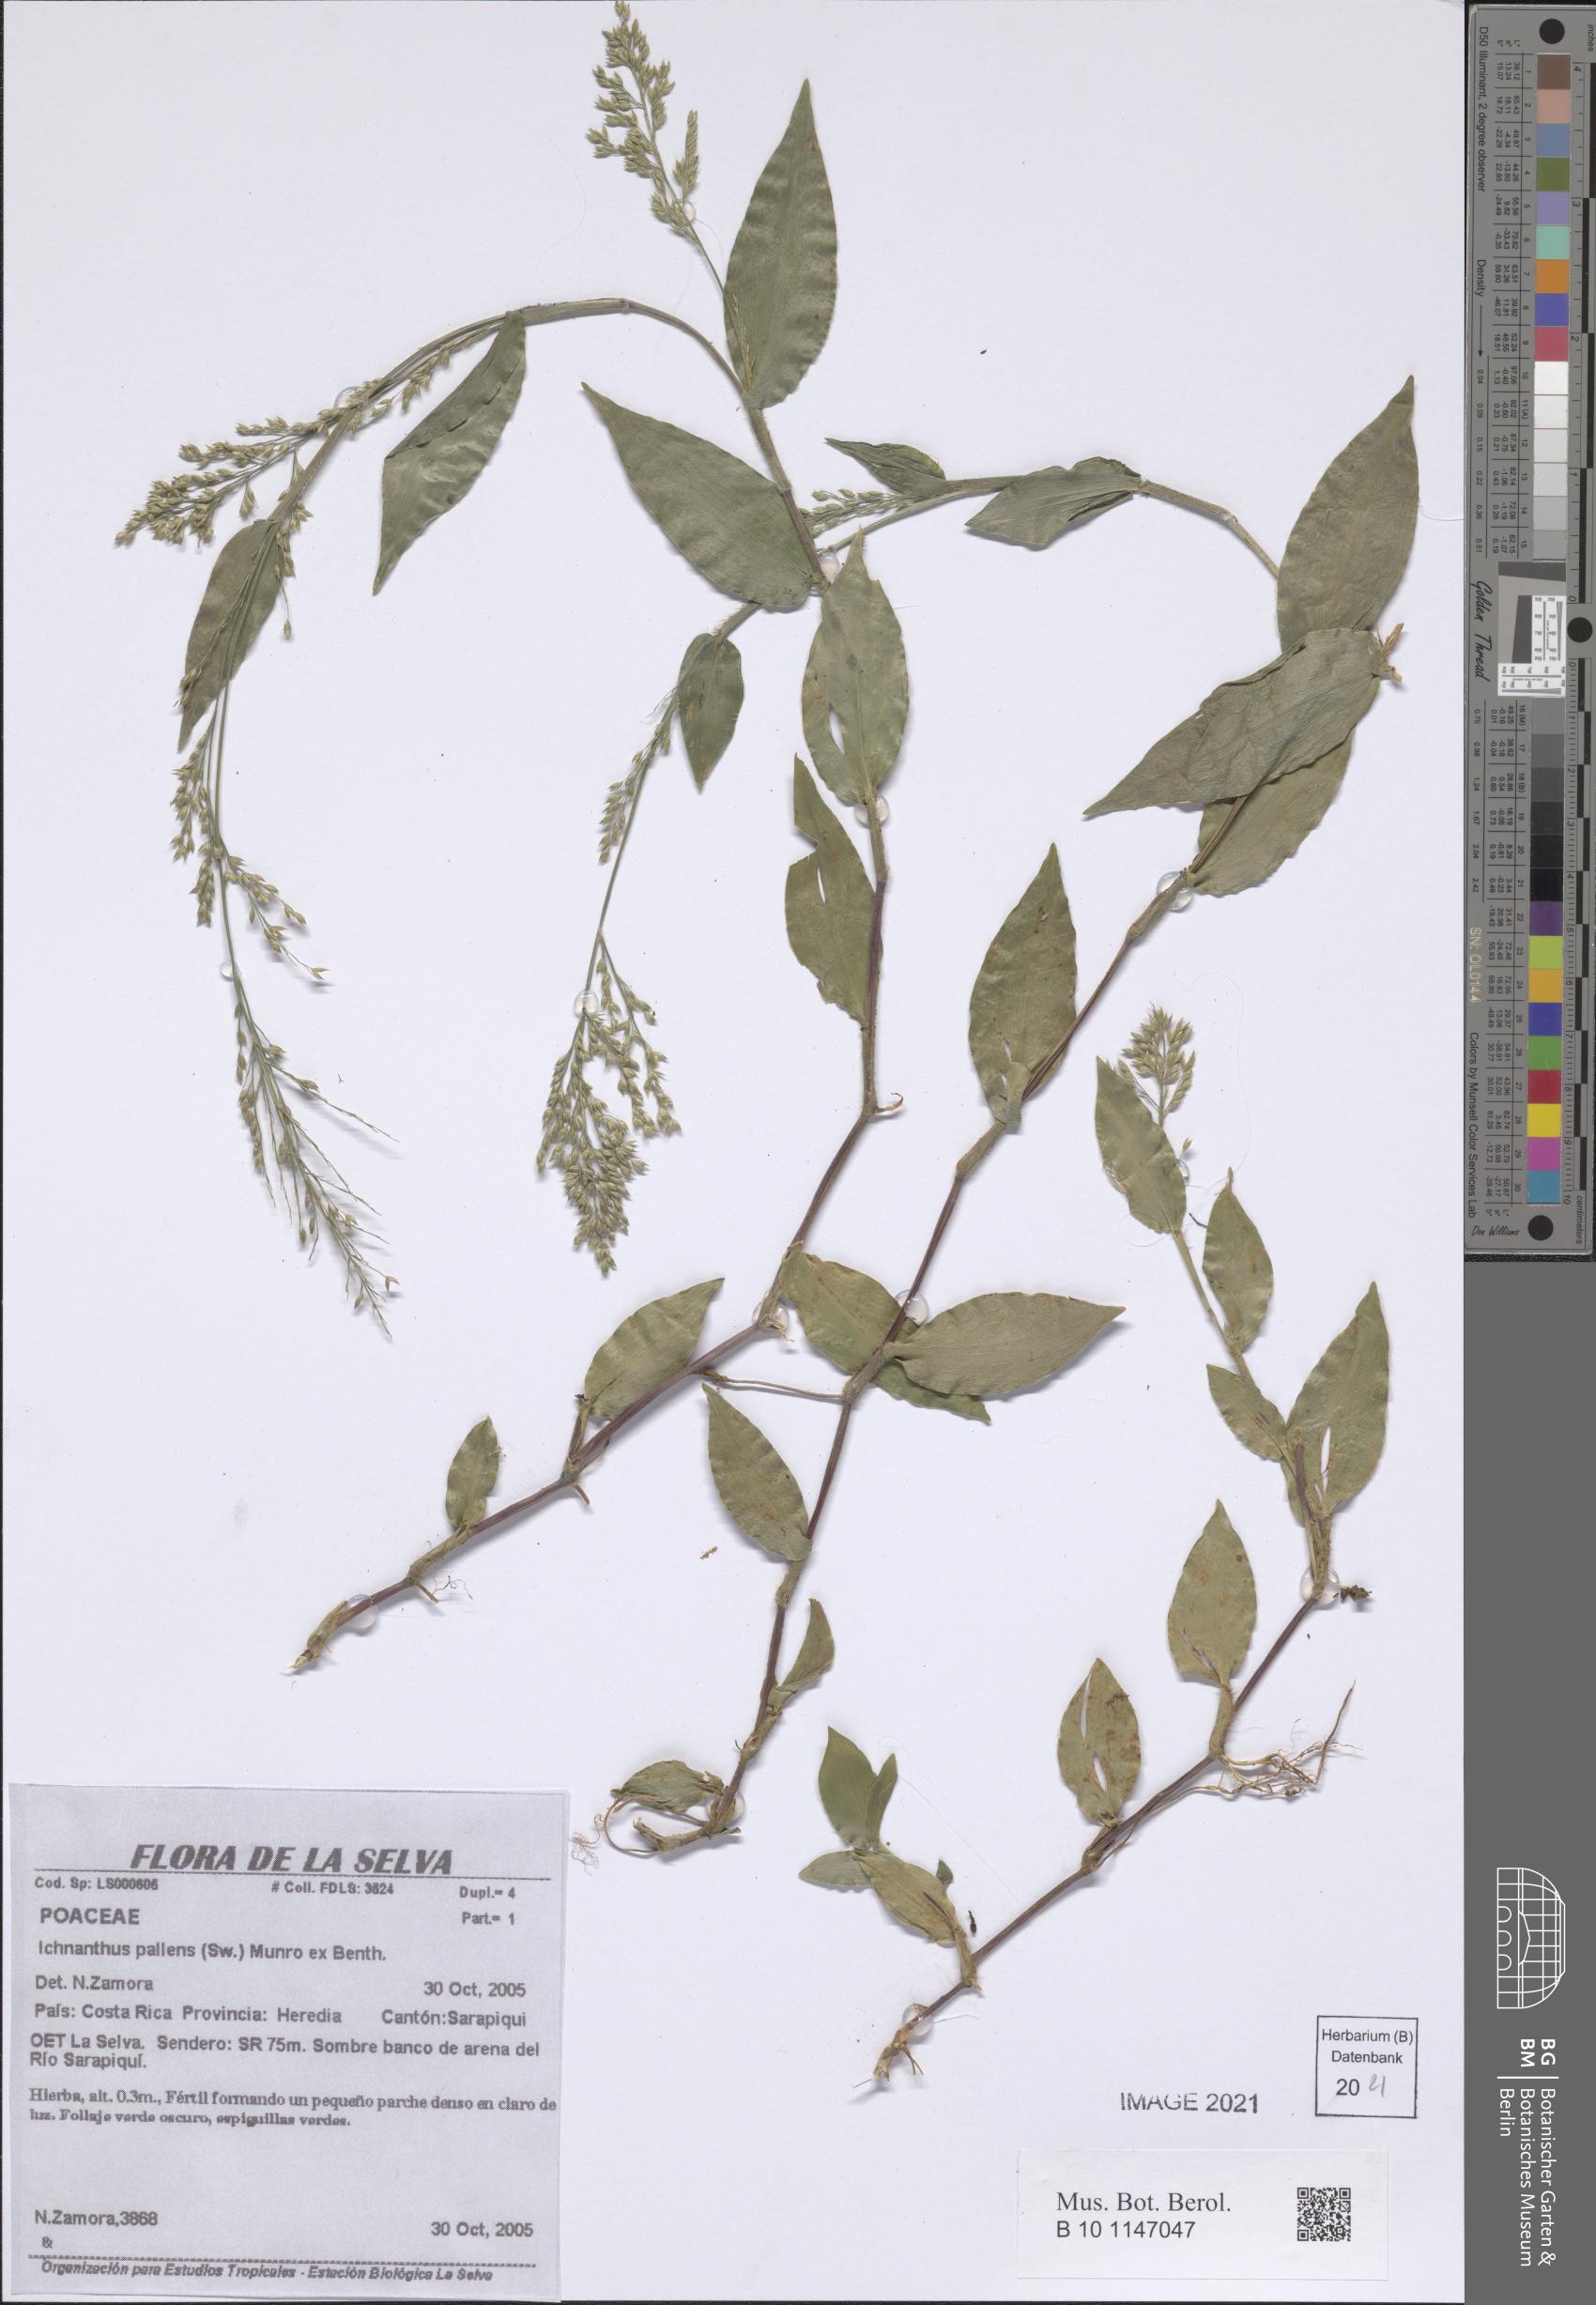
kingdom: Plantae
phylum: Tracheophyta
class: Liliopsida
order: Poales
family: Poaceae
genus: Ichnanthus
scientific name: Ichnanthus pallens
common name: Water grass
